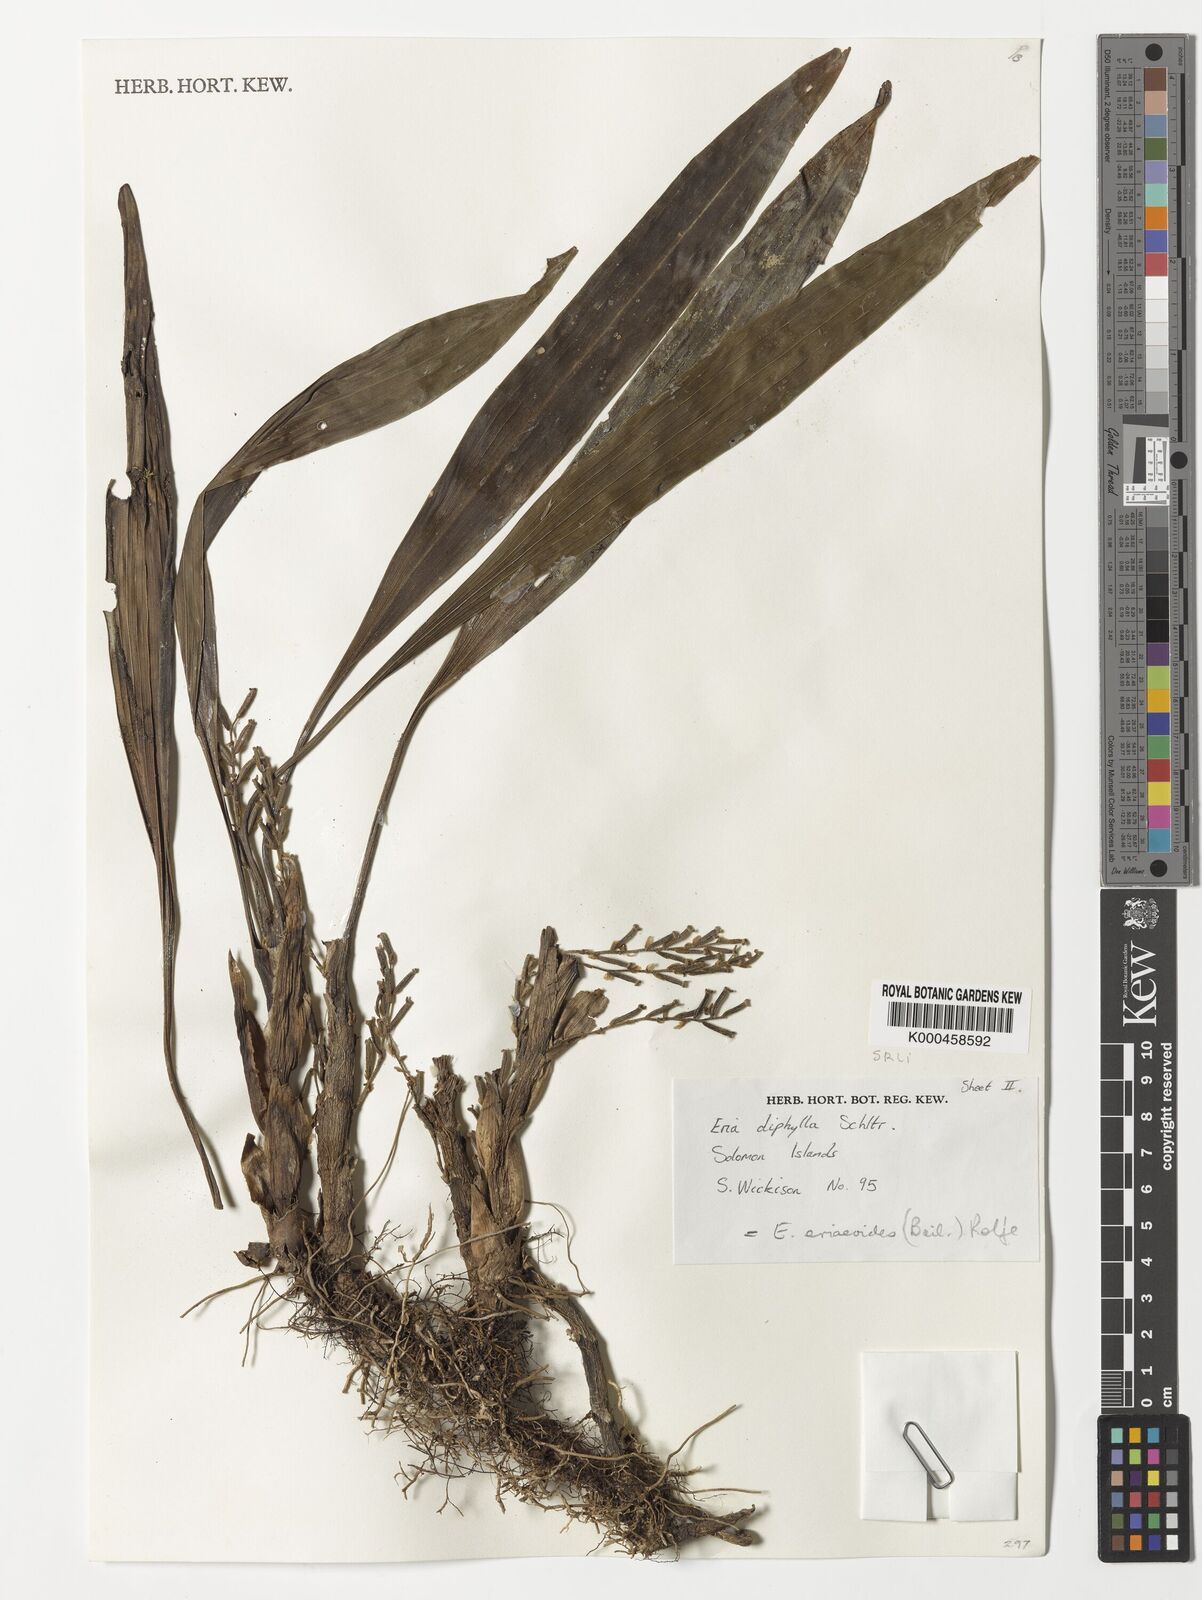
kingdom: Plantae
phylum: Tracheophyta
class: Liliopsida
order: Asparagales
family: Orchidaceae
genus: Bryobium
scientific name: Bryobium eriaeoides
